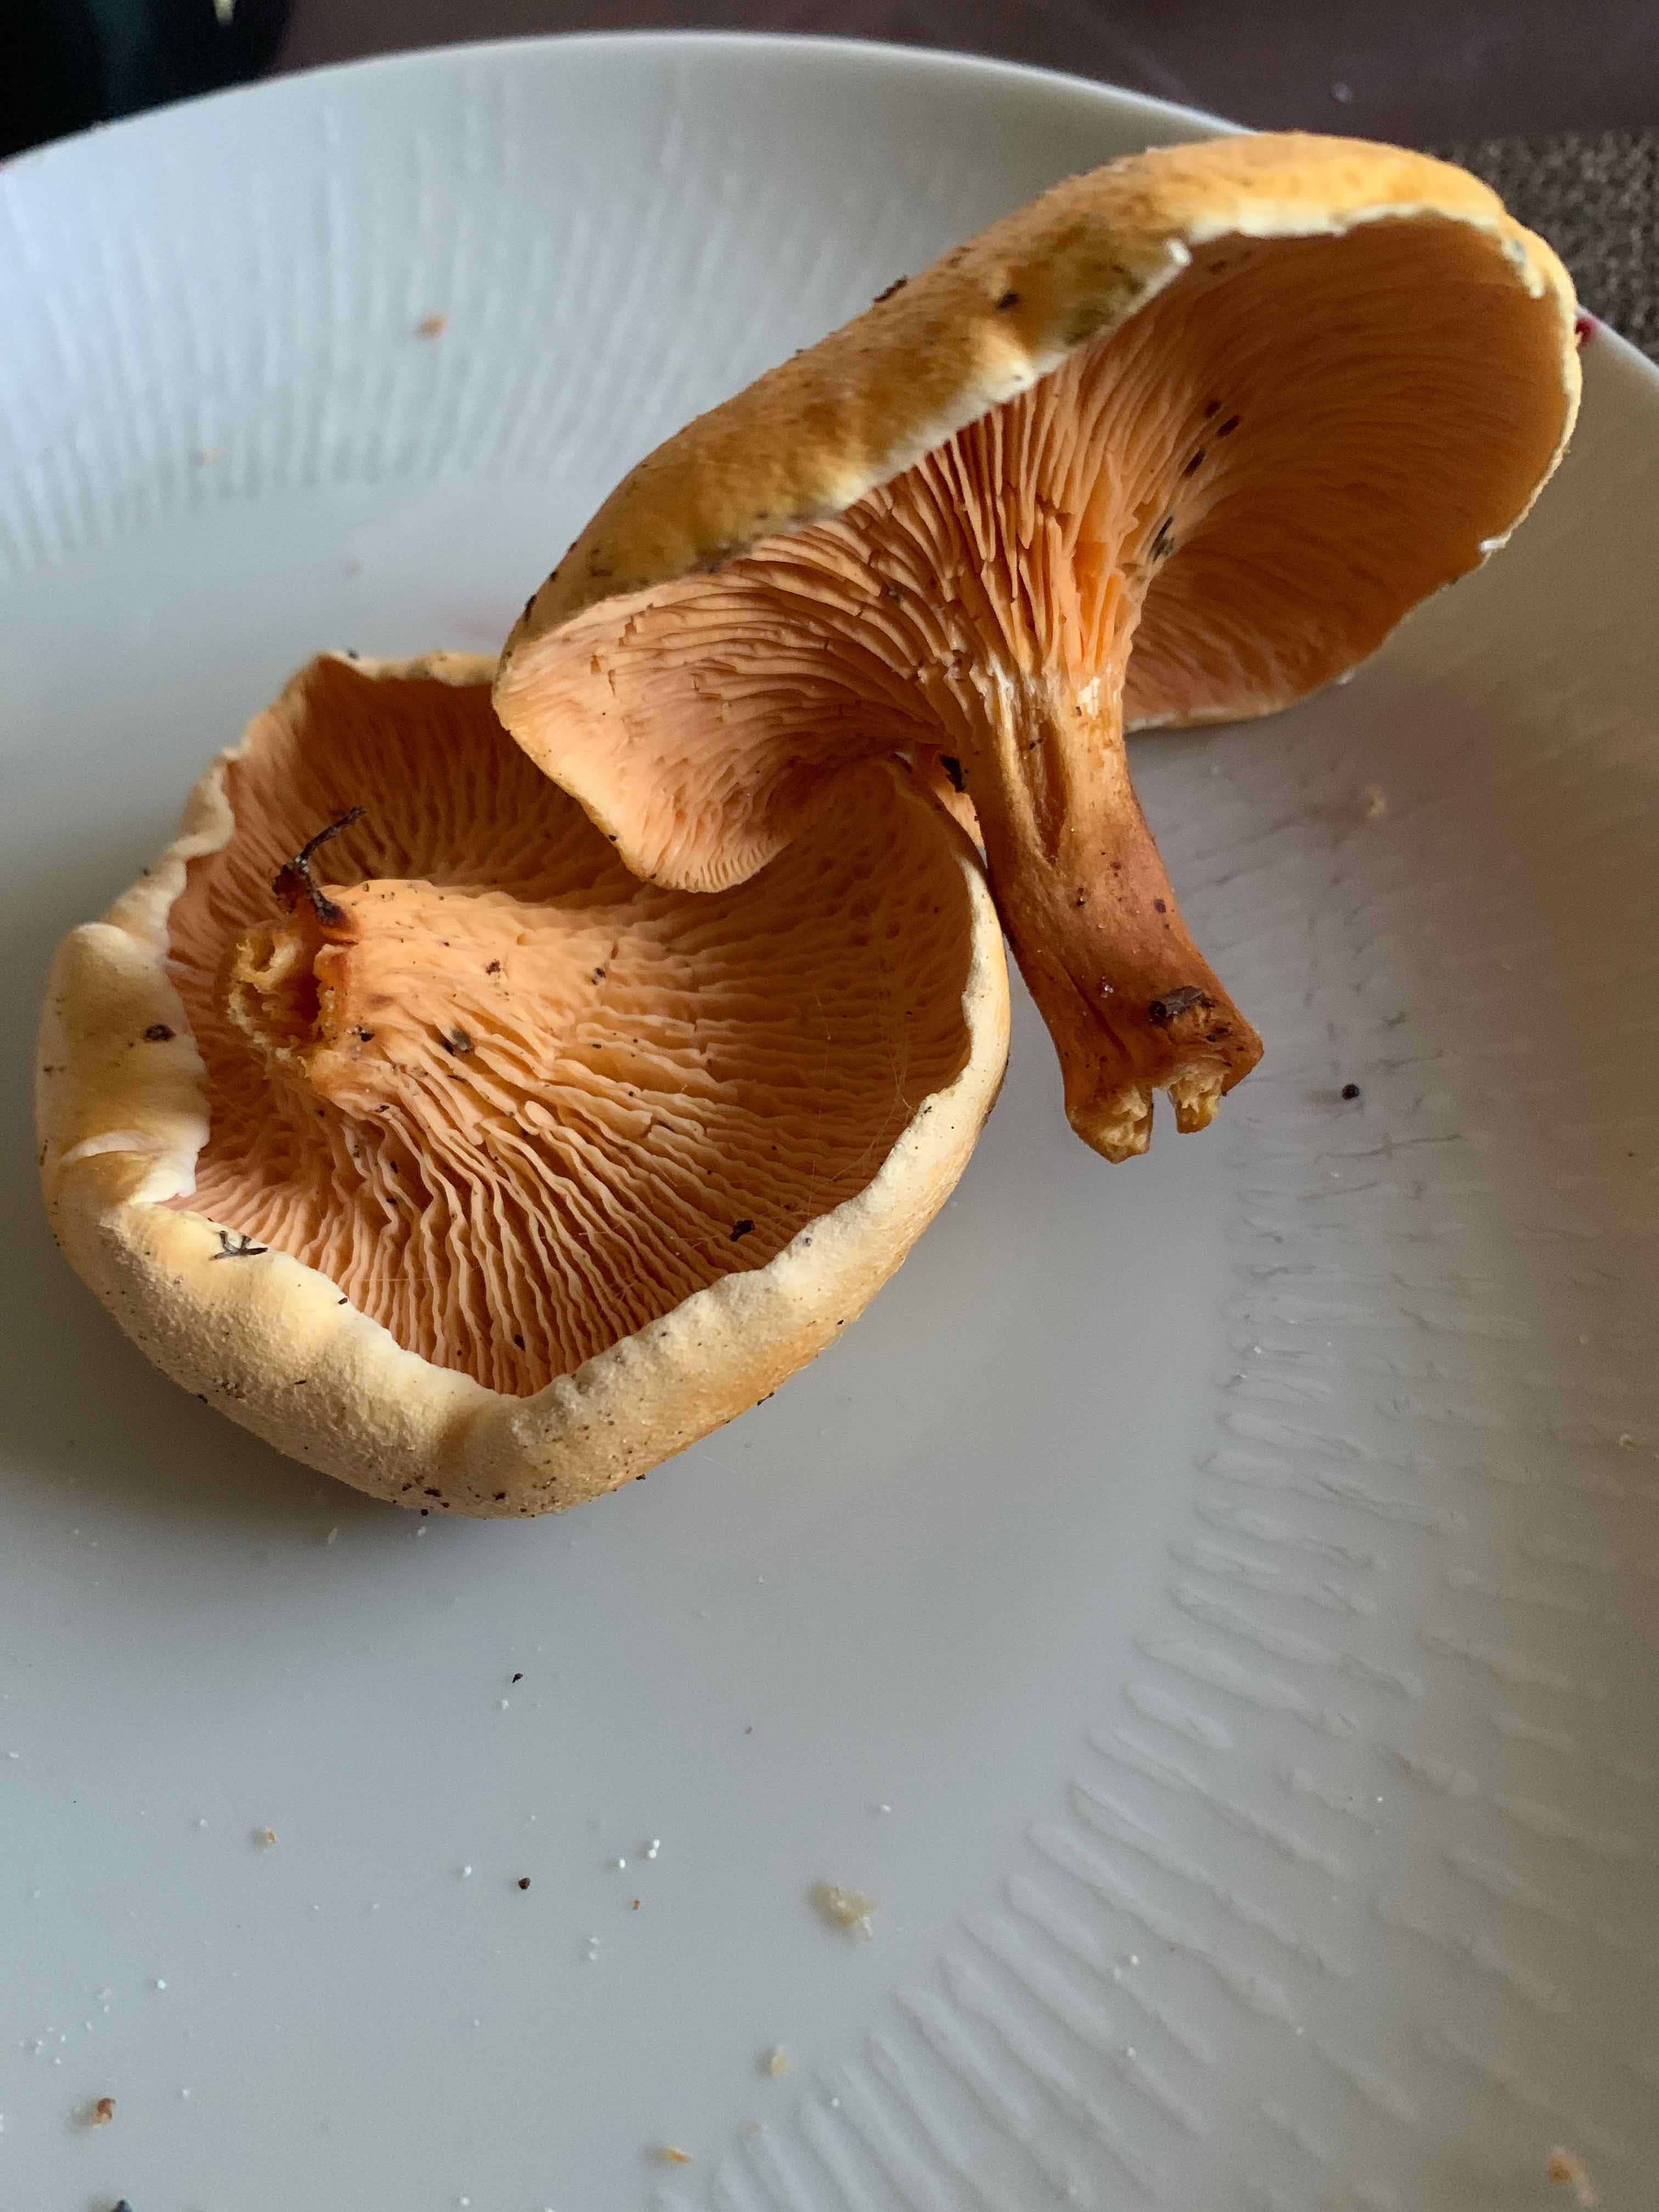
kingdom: Fungi
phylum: Basidiomycota
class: Agaricomycetes
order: Boletales
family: Hygrophoropsidaceae
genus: Hygrophoropsis
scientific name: Hygrophoropsis aurantiaca
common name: almindelig orangekantarel
